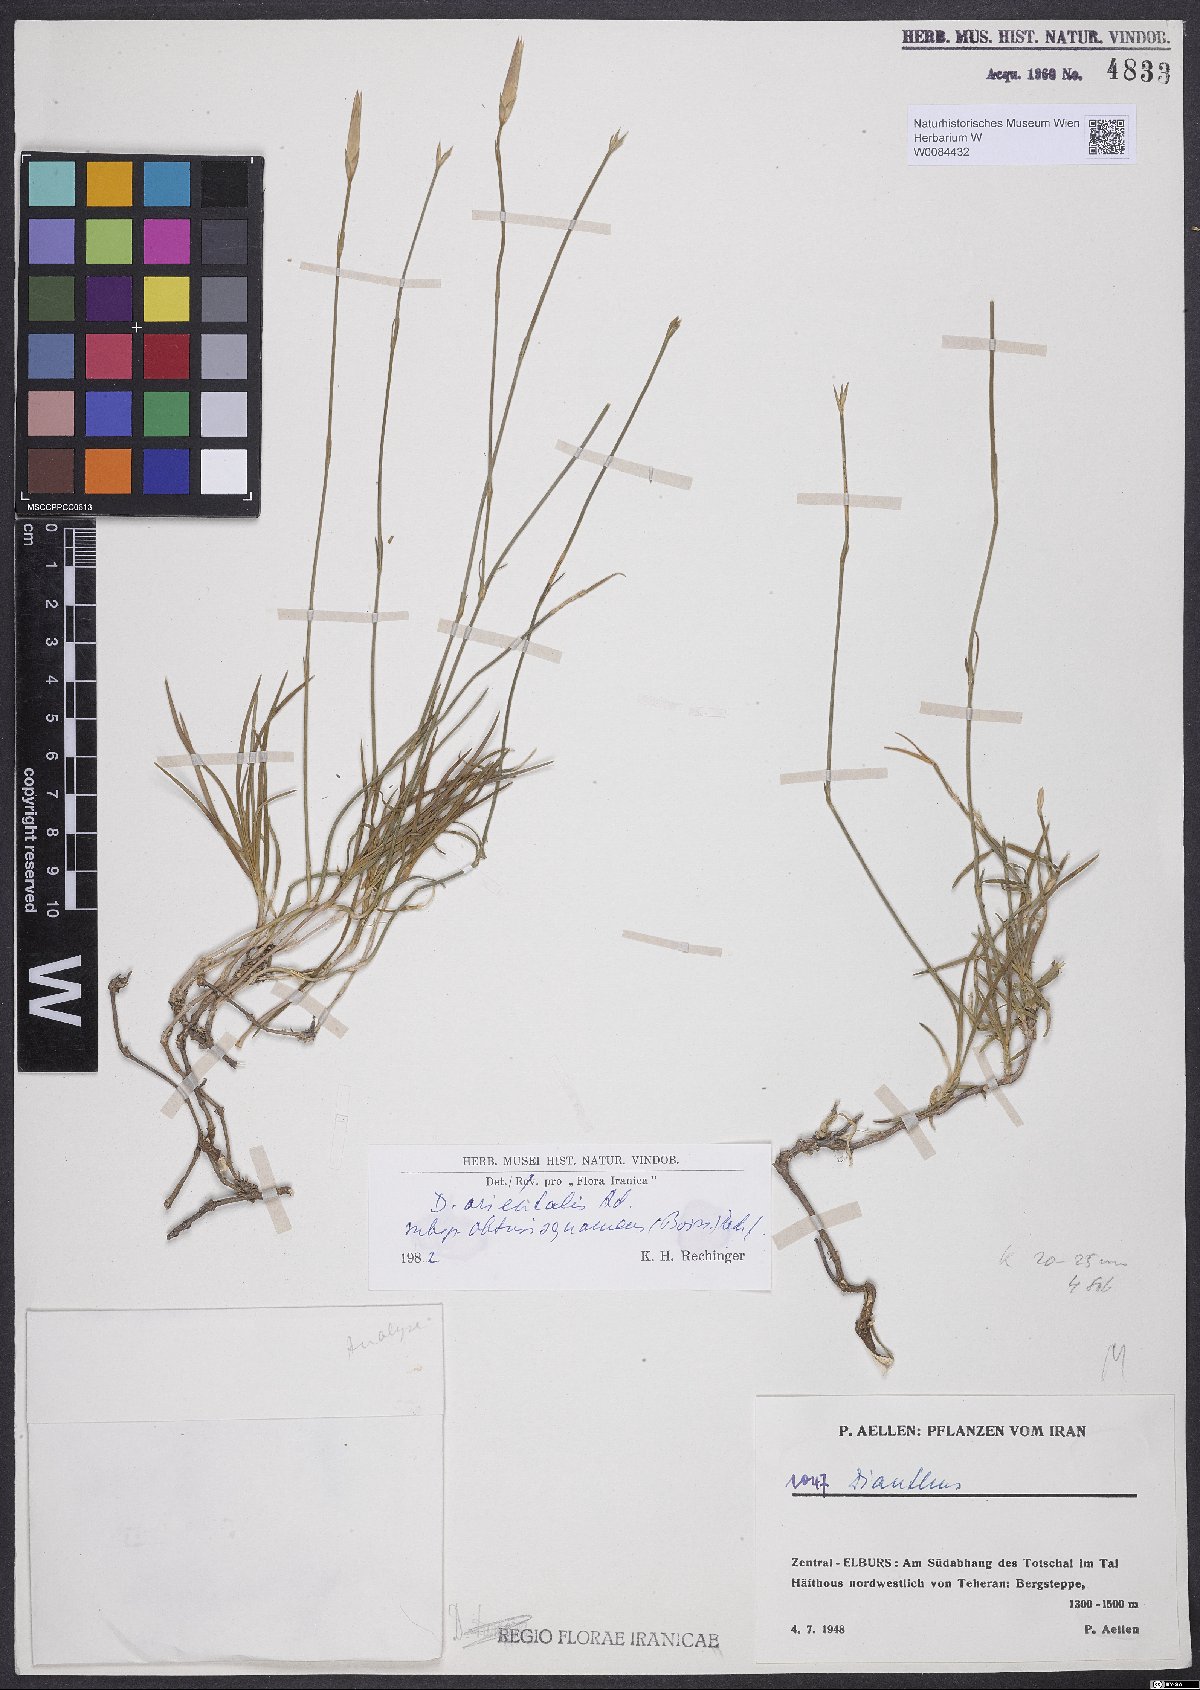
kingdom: Plantae
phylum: Tracheophyta
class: Magnoliopsida
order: Caryophyllales
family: Caryophyllaceae
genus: Dianthus
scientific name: Dianthus orientalis
